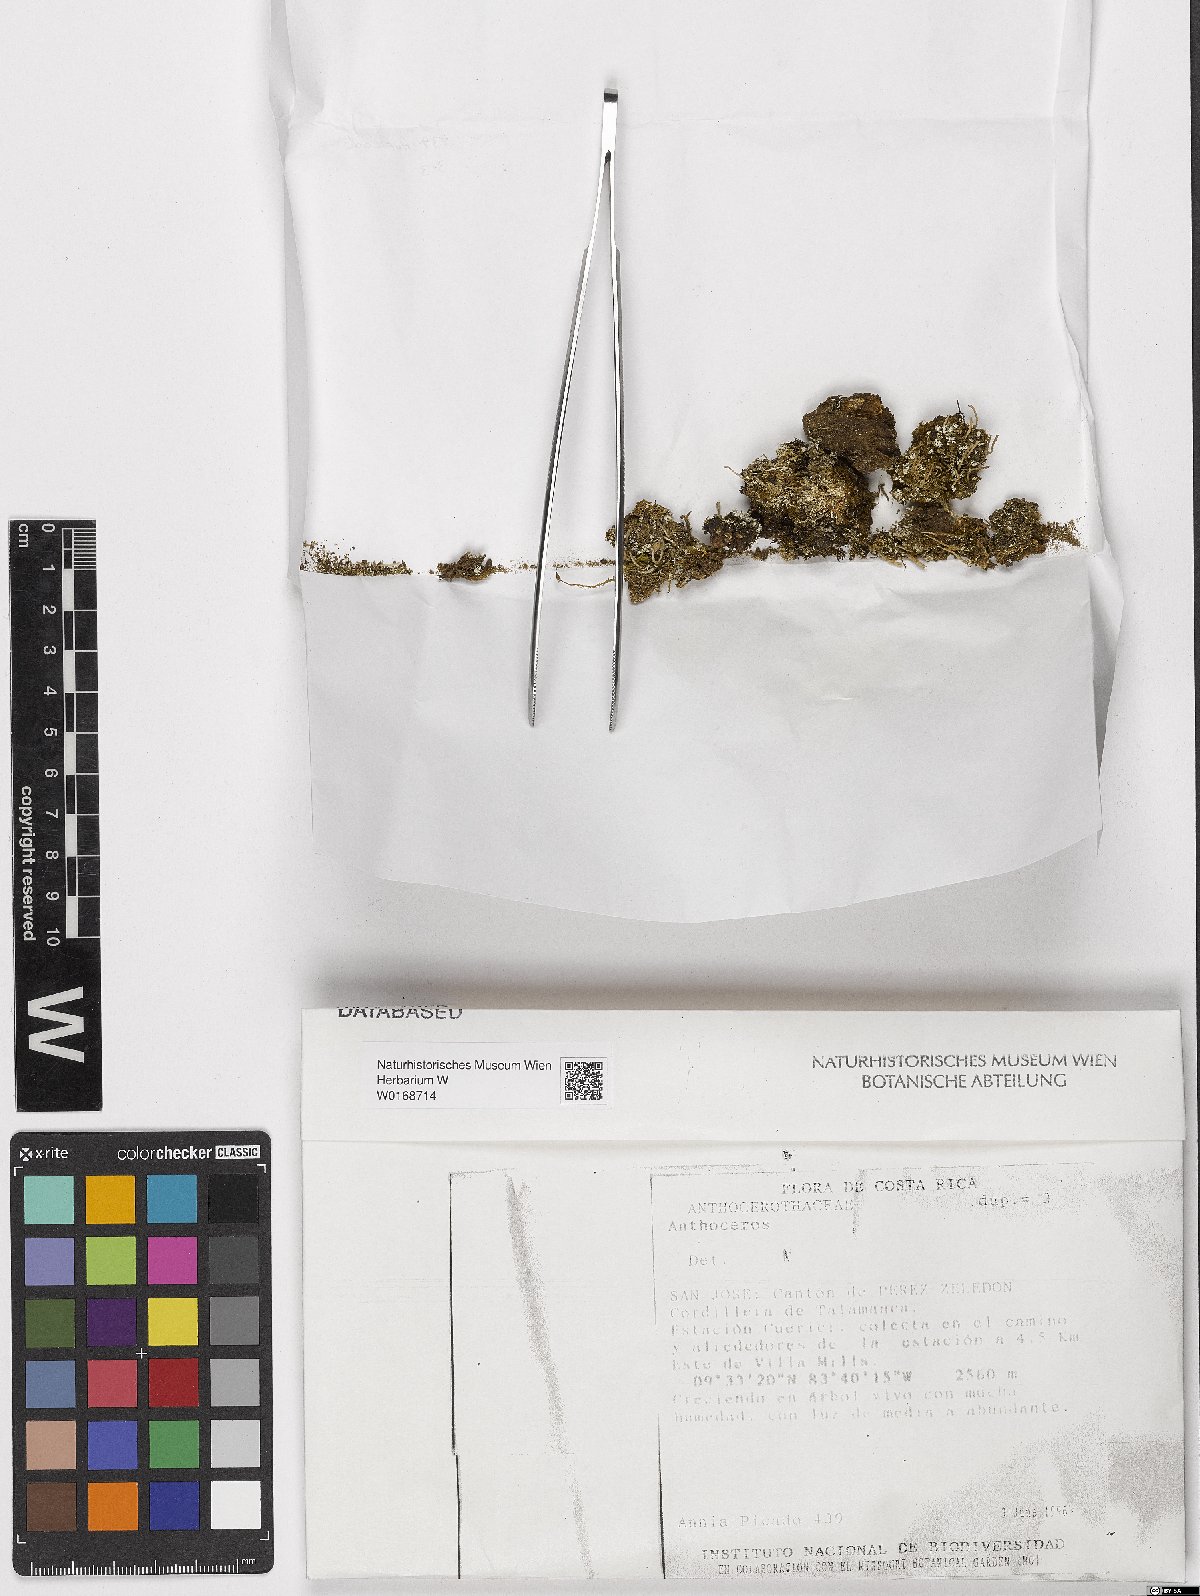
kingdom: Plantae
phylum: Anthocerotophyta
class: Anthocerotopsida
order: Anthocerotales
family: Anthocerotaceae
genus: Anthoceros
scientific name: Anthoceros
